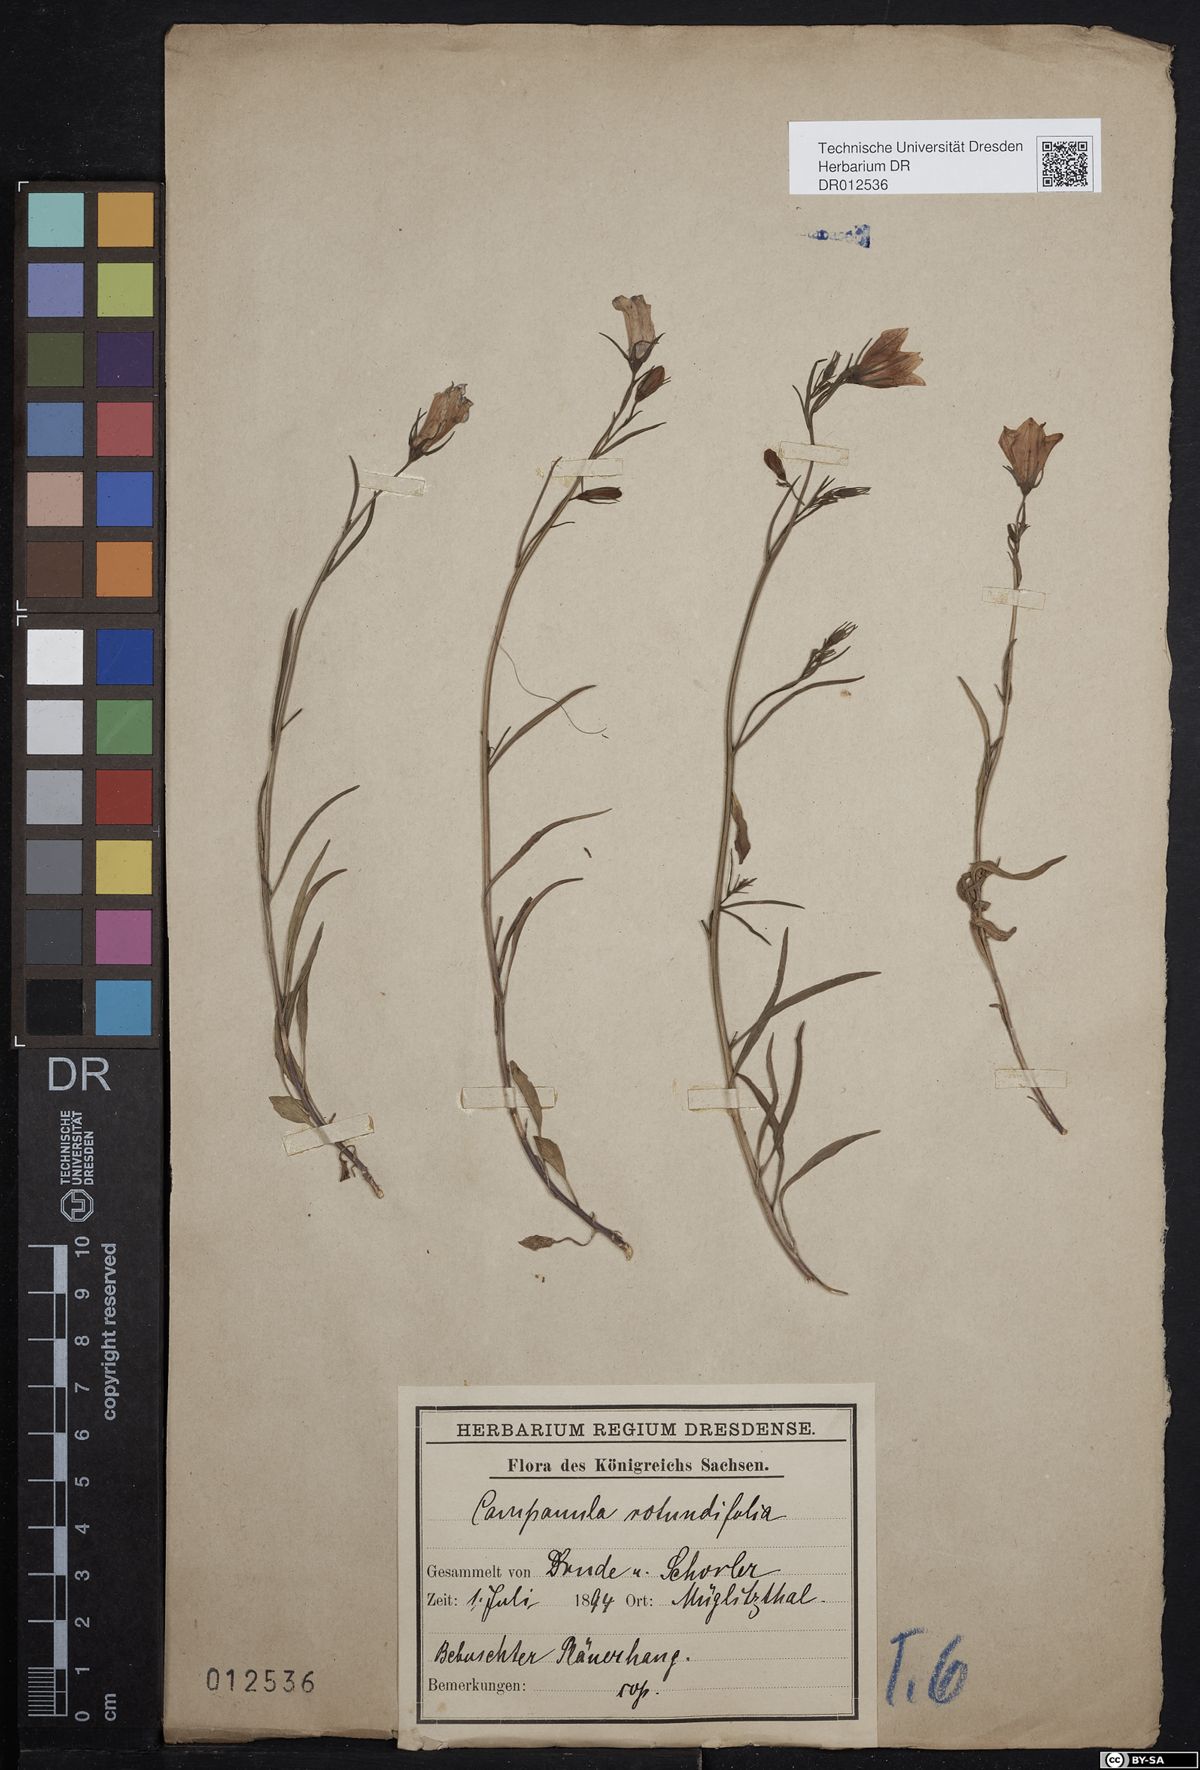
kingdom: Plantae
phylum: Tracheophyta
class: Magnoliopsida
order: Asterales
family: Campanulaceae
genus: Campanula
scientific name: Campanula rotundifolia
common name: Harebell
